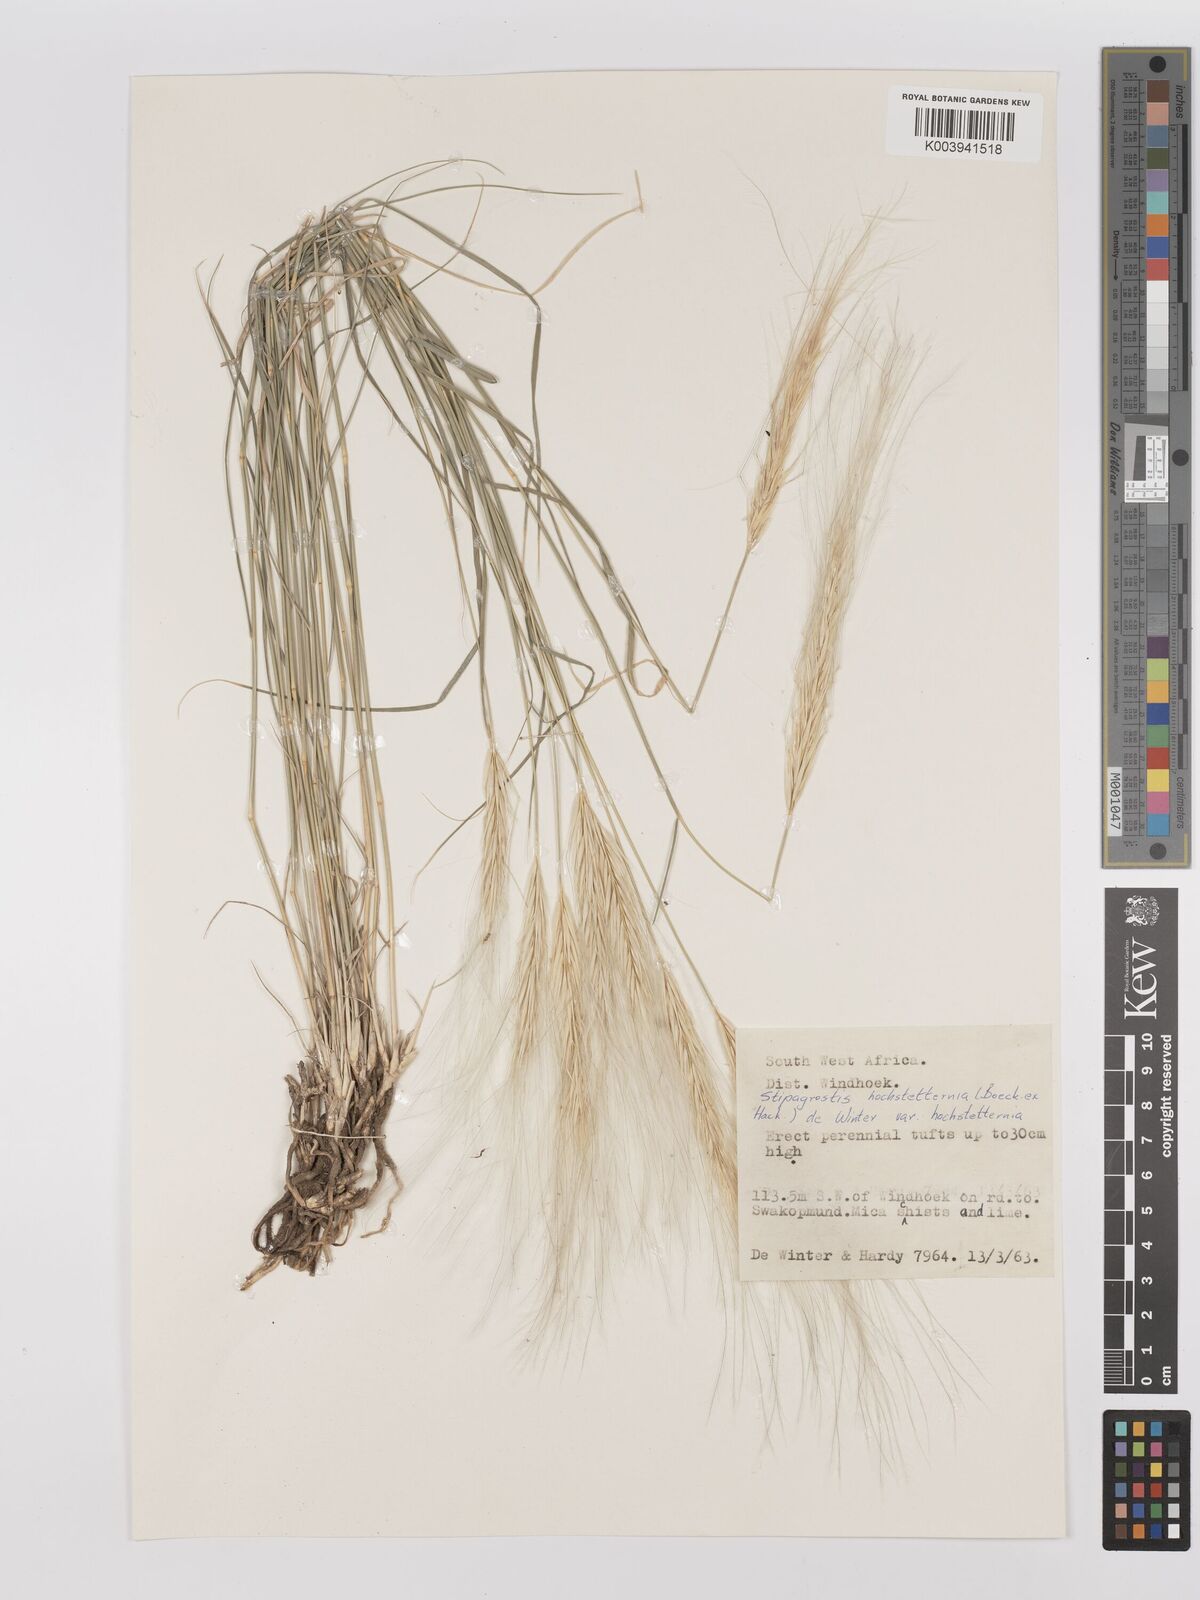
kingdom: Plantae
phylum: Tracheophyta
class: Liliopsida
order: Poales
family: Poaceae
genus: Stipagrostis
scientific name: Stipagrostis hochstetteriana
